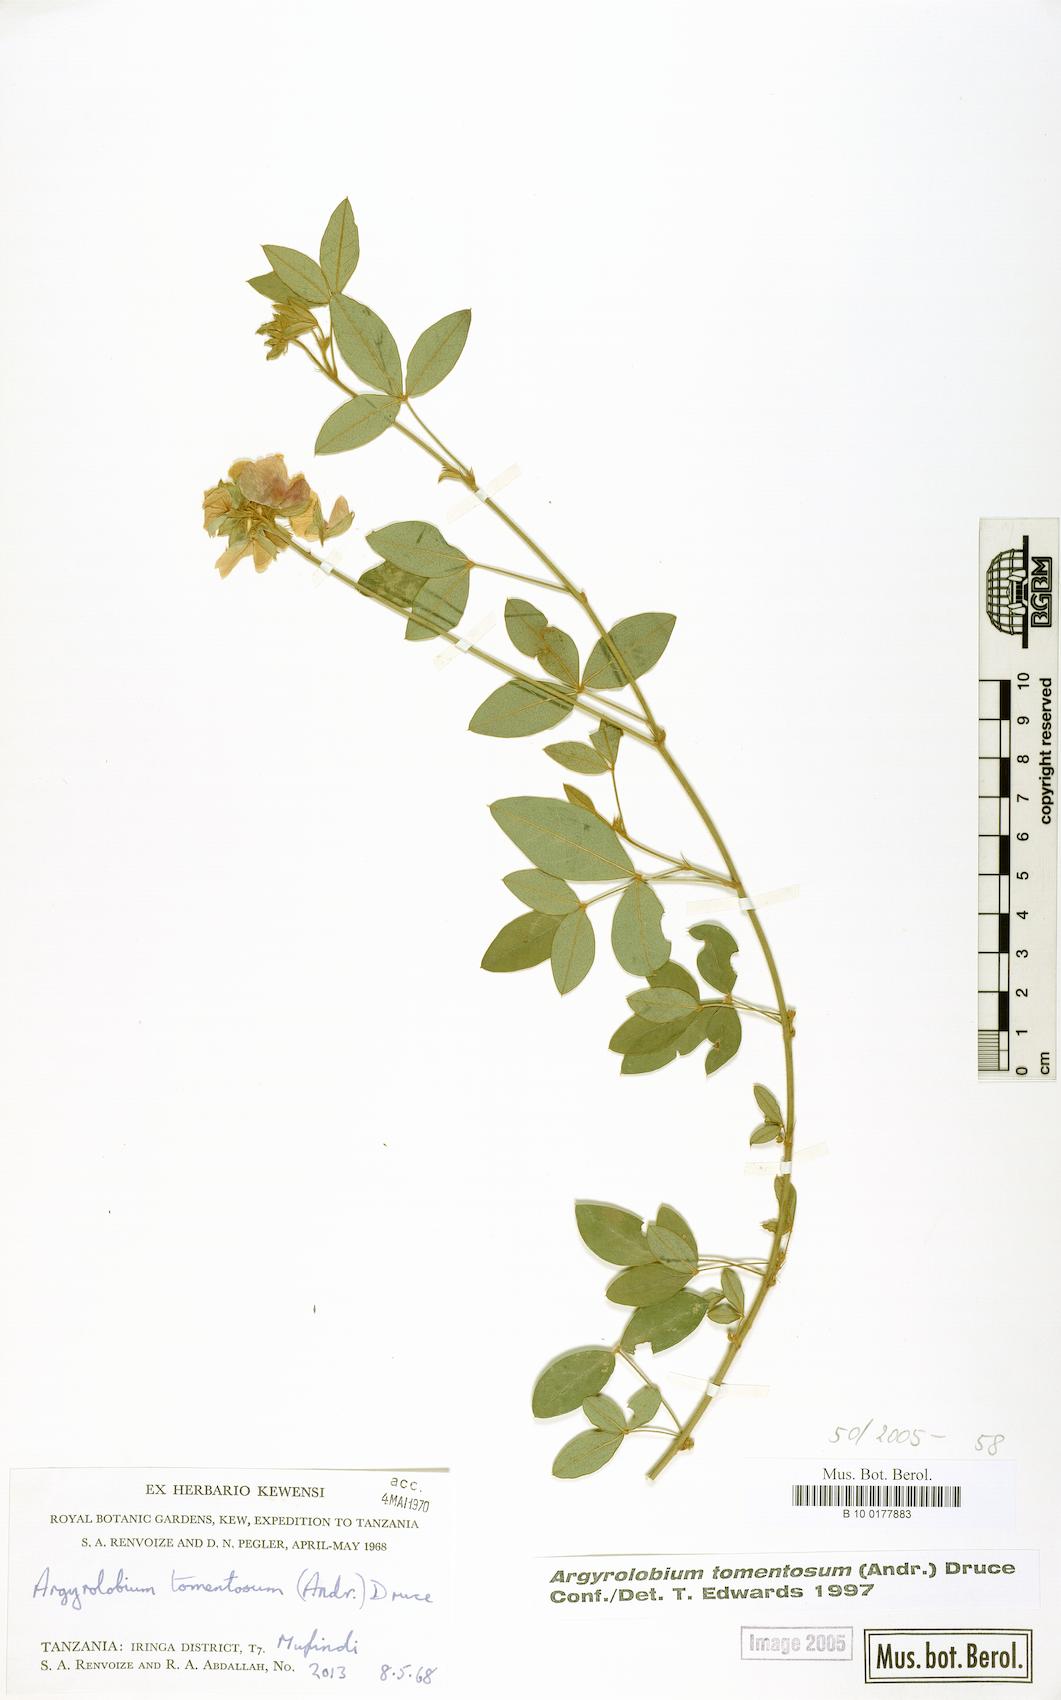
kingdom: Plantae
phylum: Tracheophyta
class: Magnoliopsida
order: Fabales
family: Fabaceae
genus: Argyrolobium
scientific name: Argyrolobium tomentosum
